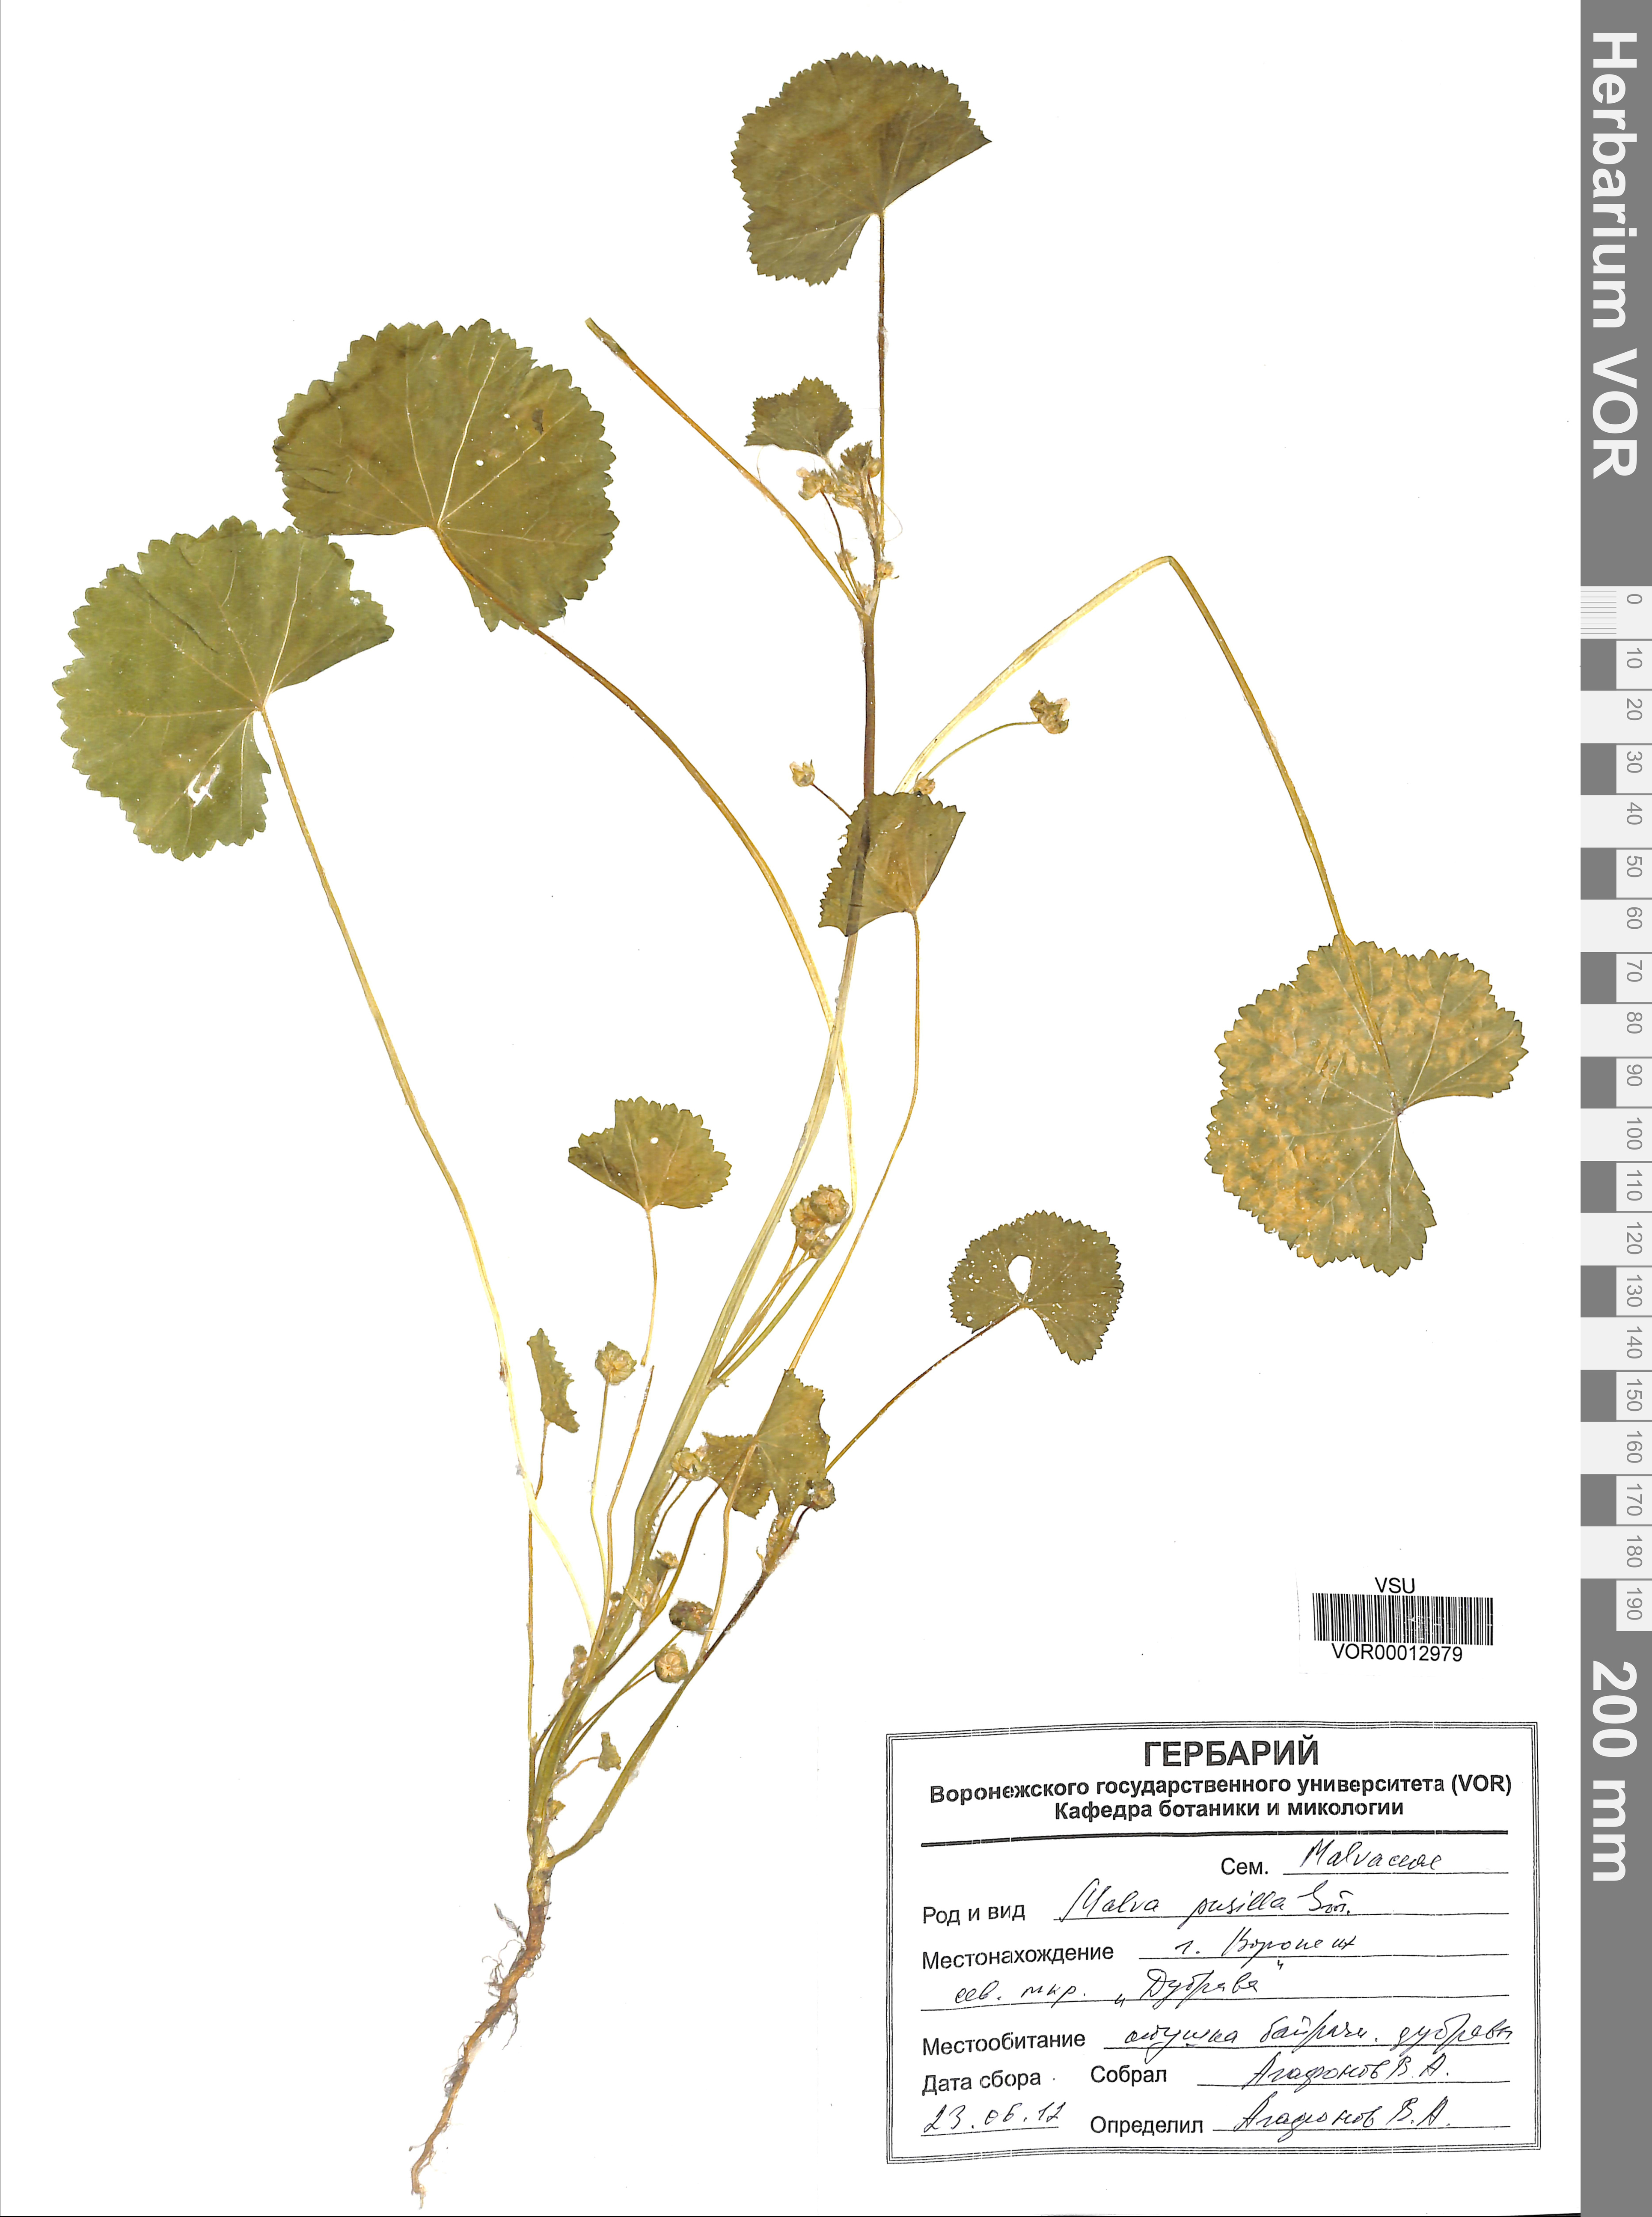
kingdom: Plantae
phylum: Tracheophyta
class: Magnoliopsida
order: Malvales
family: Malvaceae
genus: Malva
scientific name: Malva pusilla
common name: Small mallow
